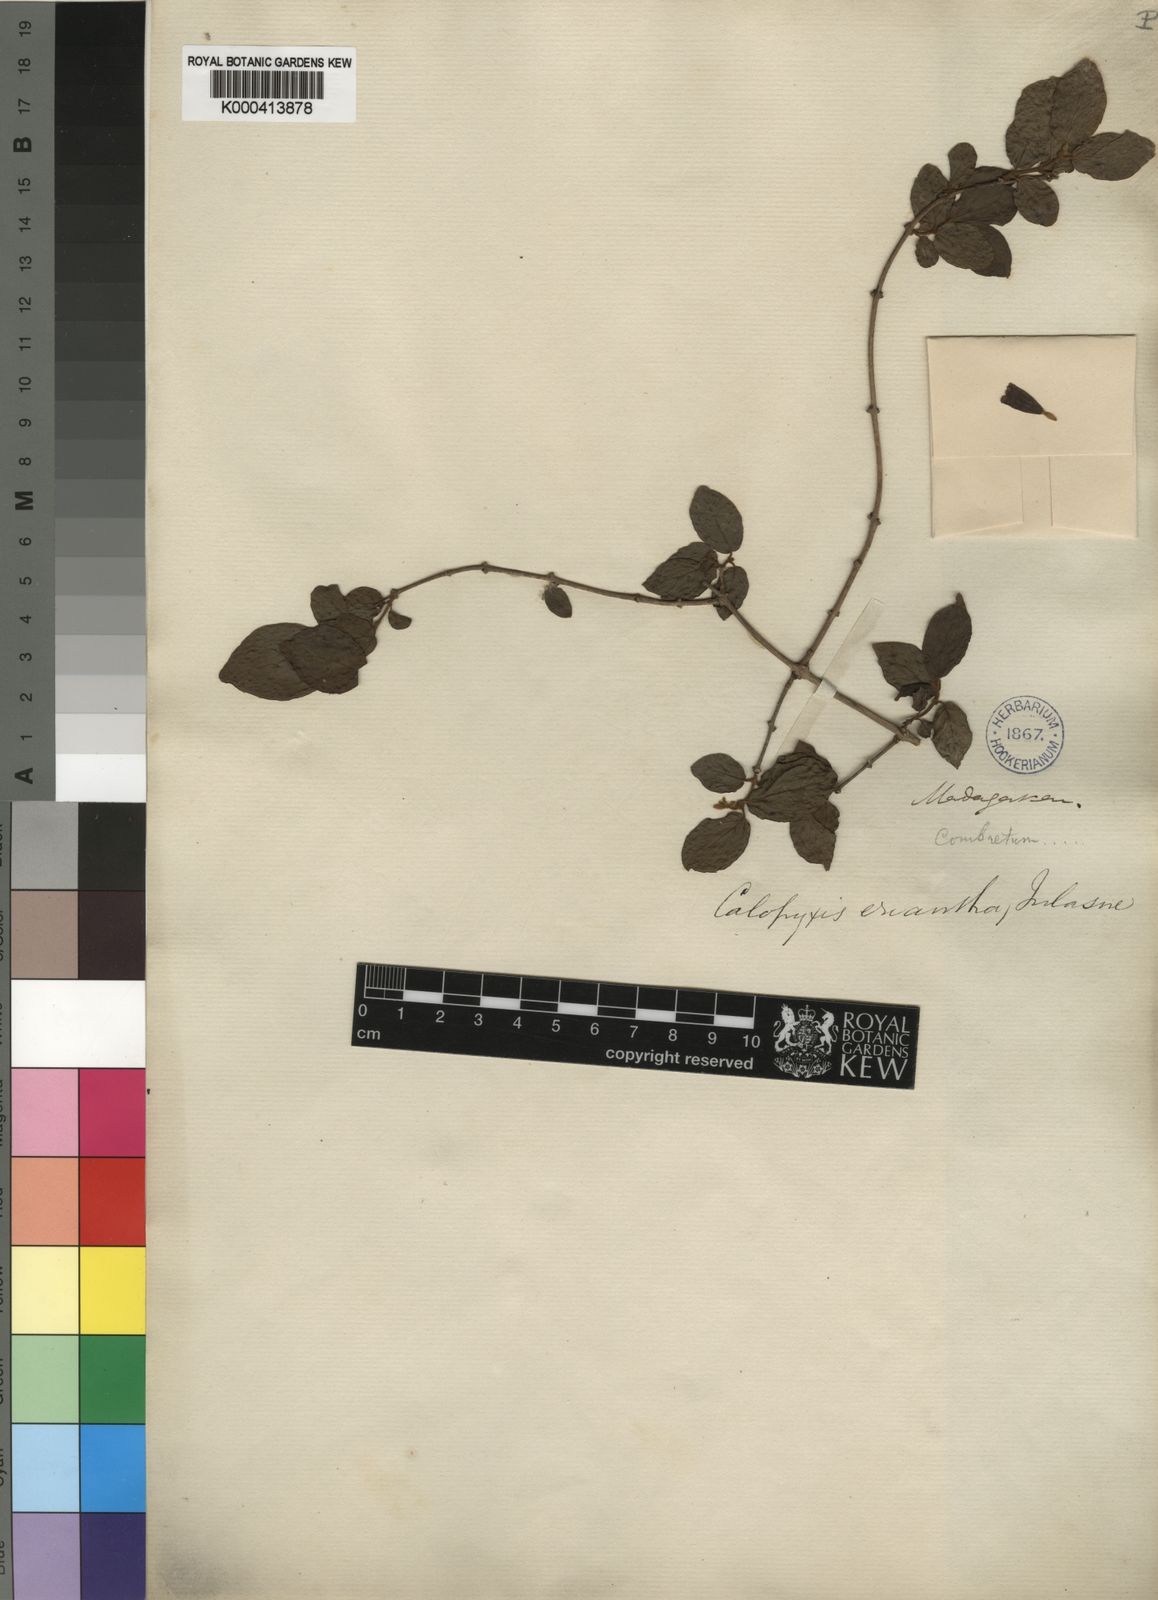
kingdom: Plantae
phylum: Tracheophyta
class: Magnoliopsida
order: Myrtales
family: Combretaceae
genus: Combretum
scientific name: Combretum longicollum
